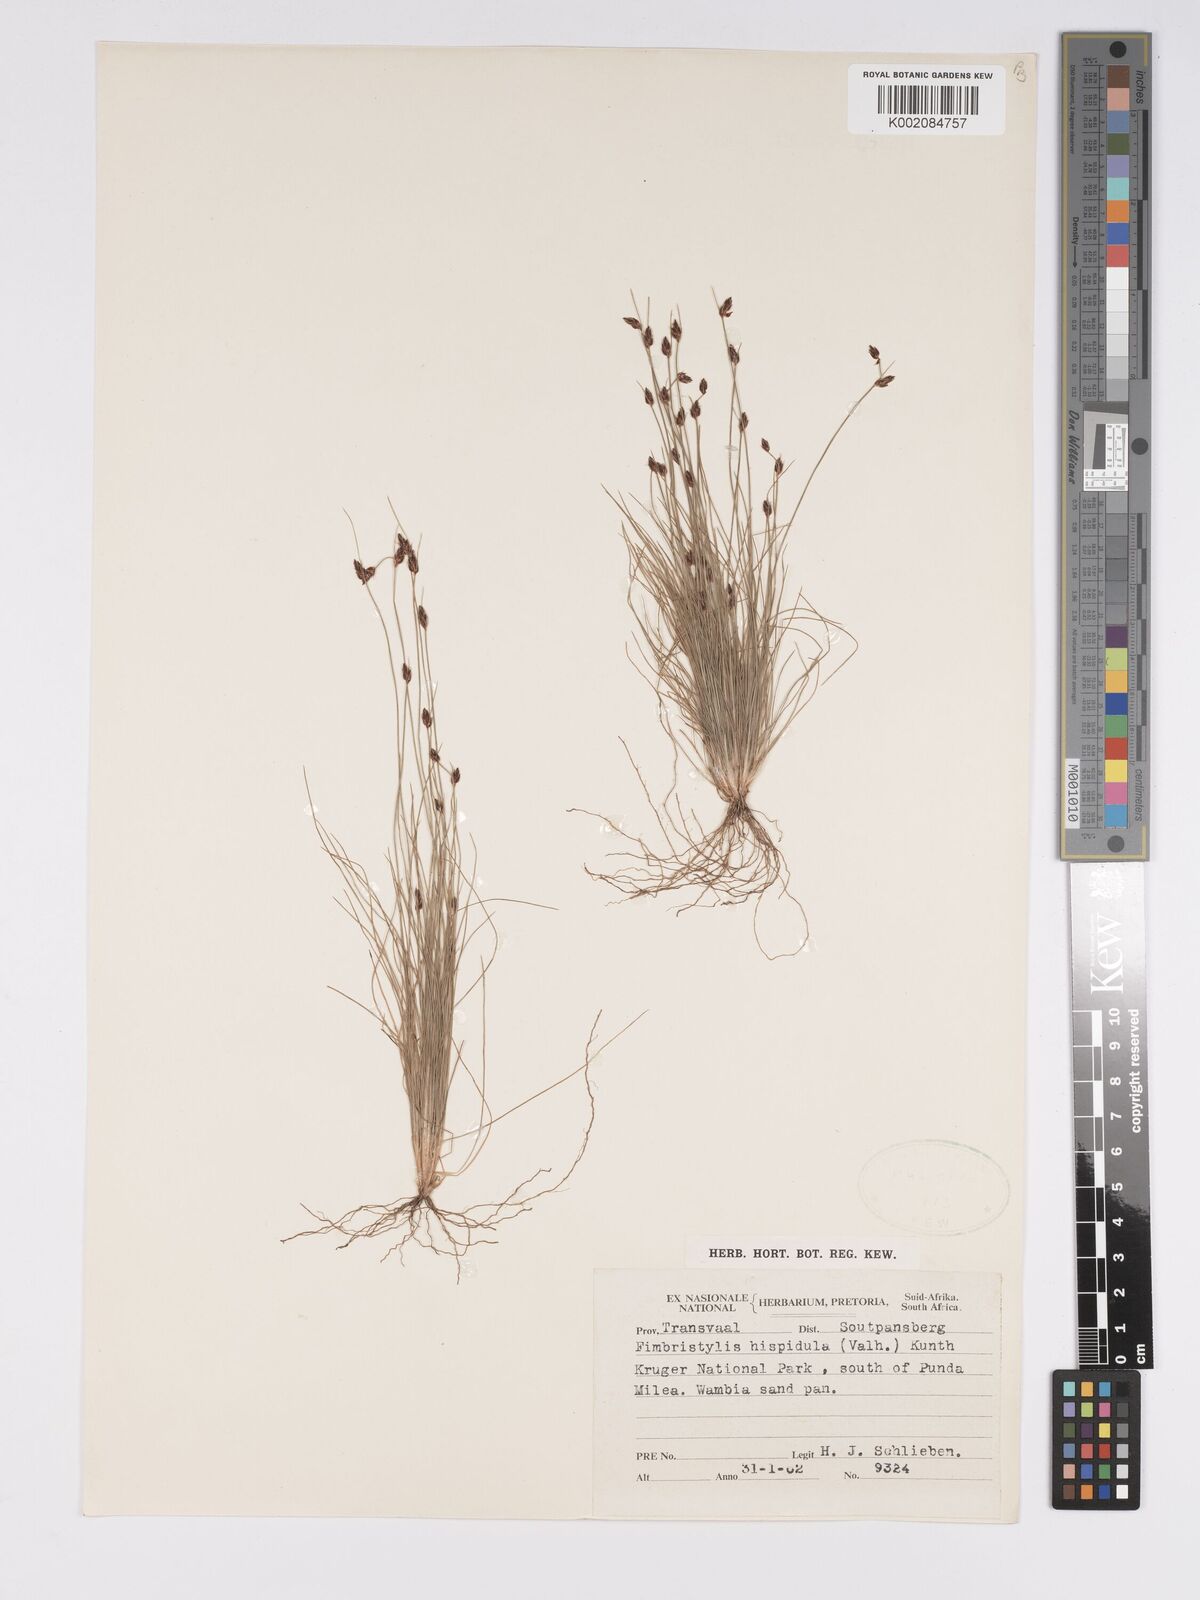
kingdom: Plantae
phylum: Tracheophyta
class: Liliopsida
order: Poales
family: Cyperaceae
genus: Bulbostylis
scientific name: Bulbostylis
